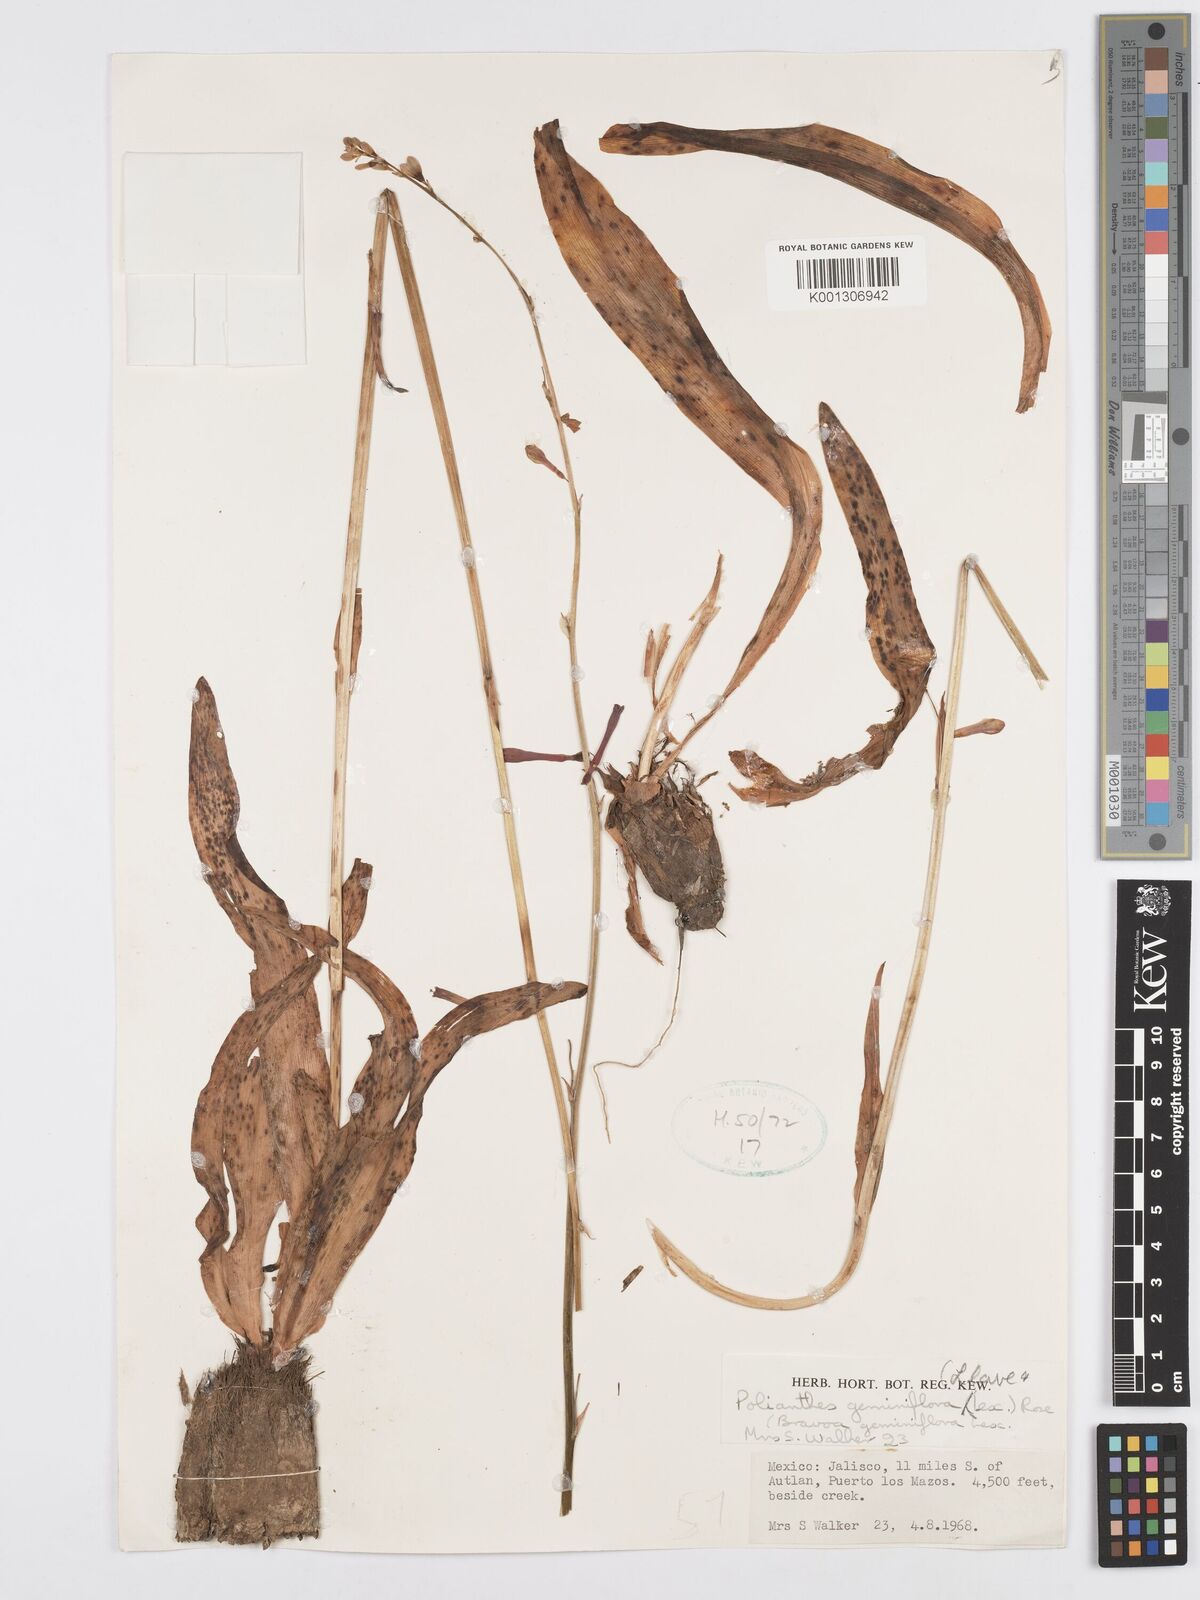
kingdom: Plantae
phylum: Tracheophyta
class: Liliopsida
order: Asparagales
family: Asparagaceae
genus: Agave
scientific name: Agave coetocapnia
